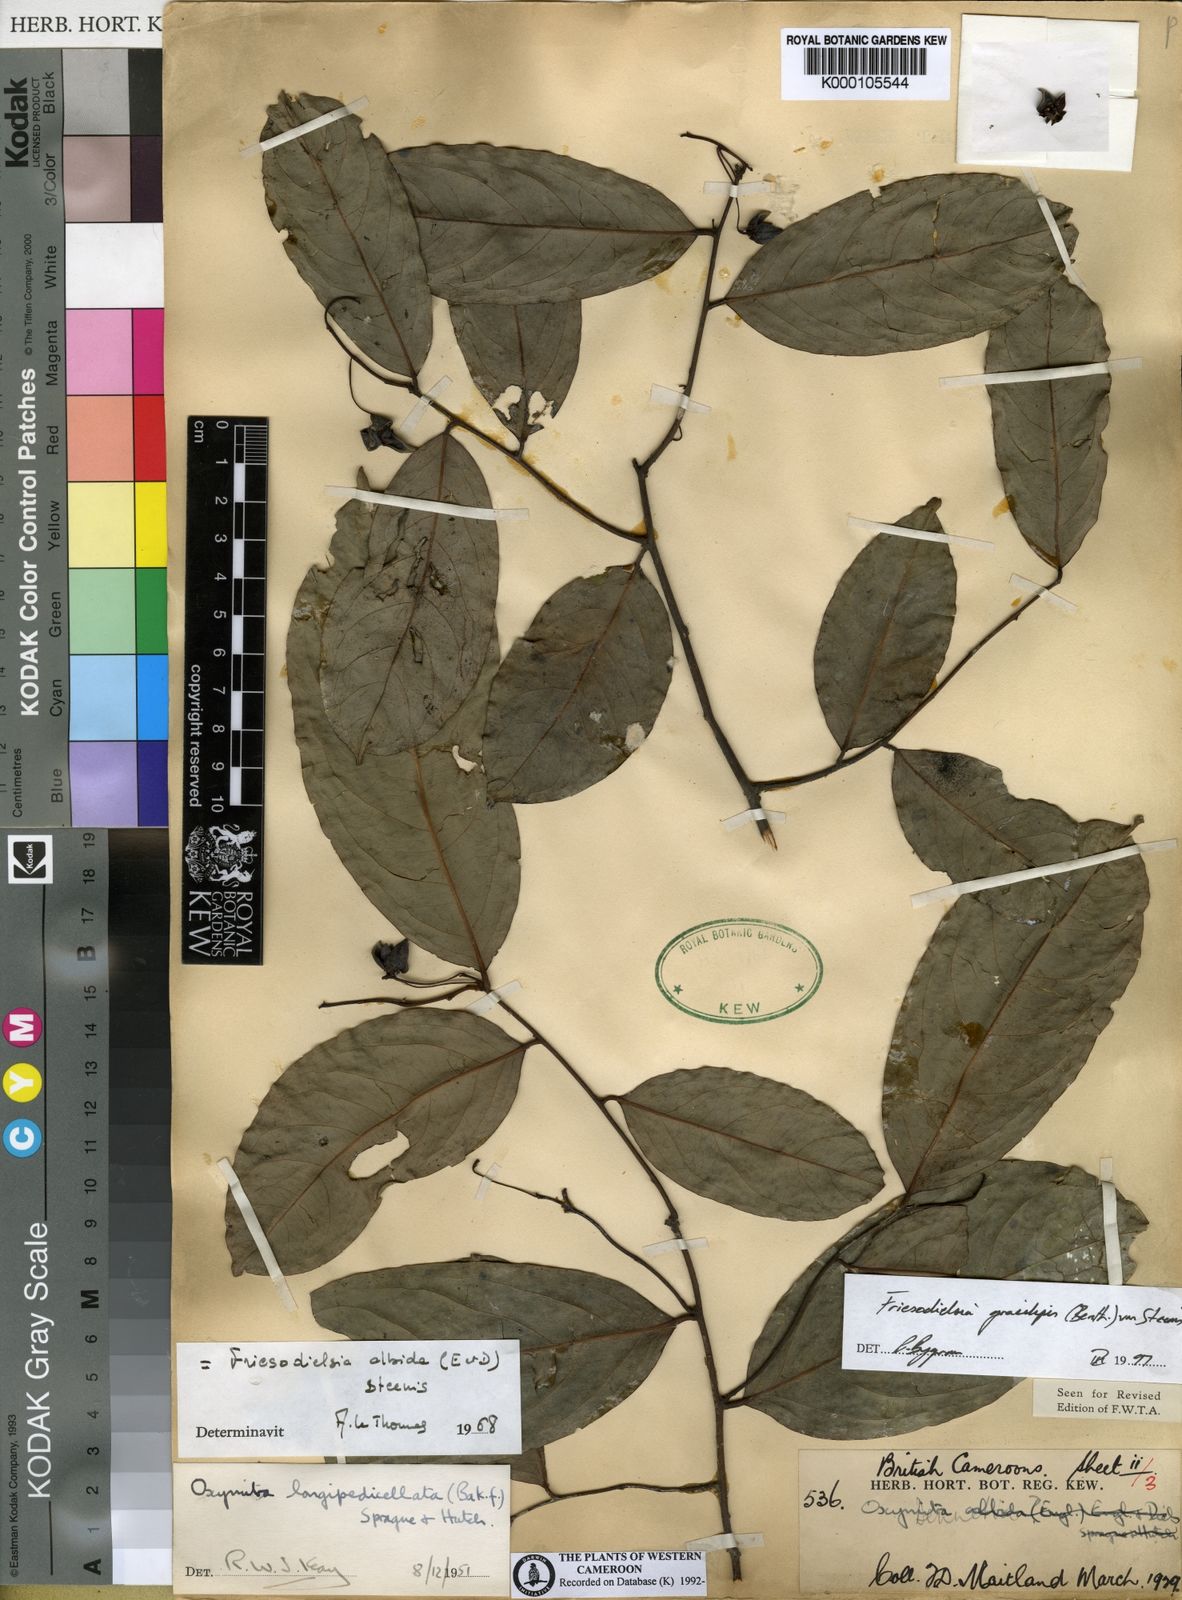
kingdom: Plantae
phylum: Tracheophyta
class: Magnoliopsida
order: Magnoliales
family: Annonaceae
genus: Friesodielsia
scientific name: Friesodielsia gracilipes
